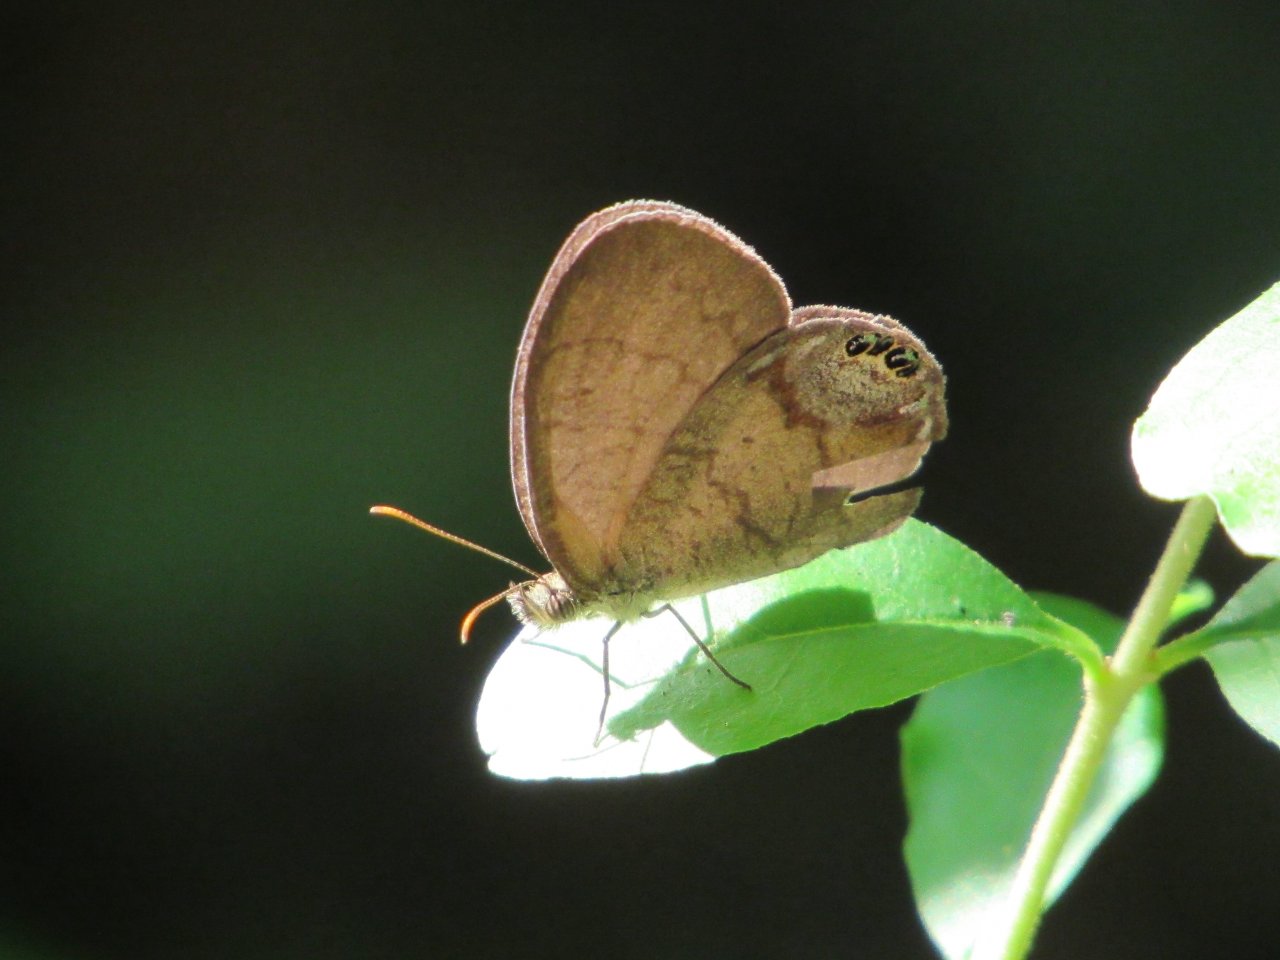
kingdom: Animalia
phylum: Arthropoda
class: Insecta
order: Lepidoptera
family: Nymphalidae
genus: Euptychia
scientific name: Euptychia cornelius
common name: Gemmed Satyr
